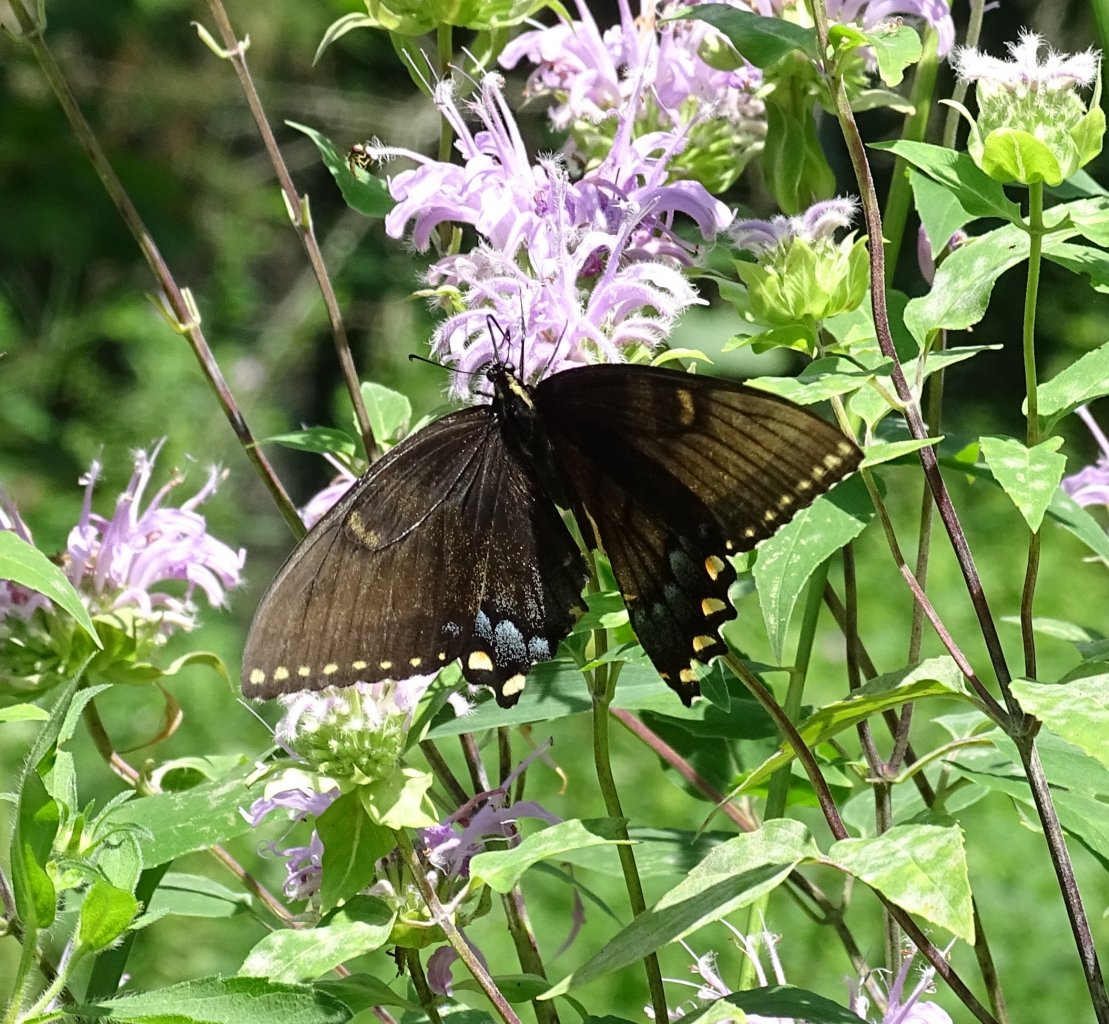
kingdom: Animalia
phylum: Arthropoda
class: Insecta
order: Lepidoptera
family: Papilionidae
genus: Pterourus
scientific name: Pterourus glaucus
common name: Eastern Tiger Swallowtail
